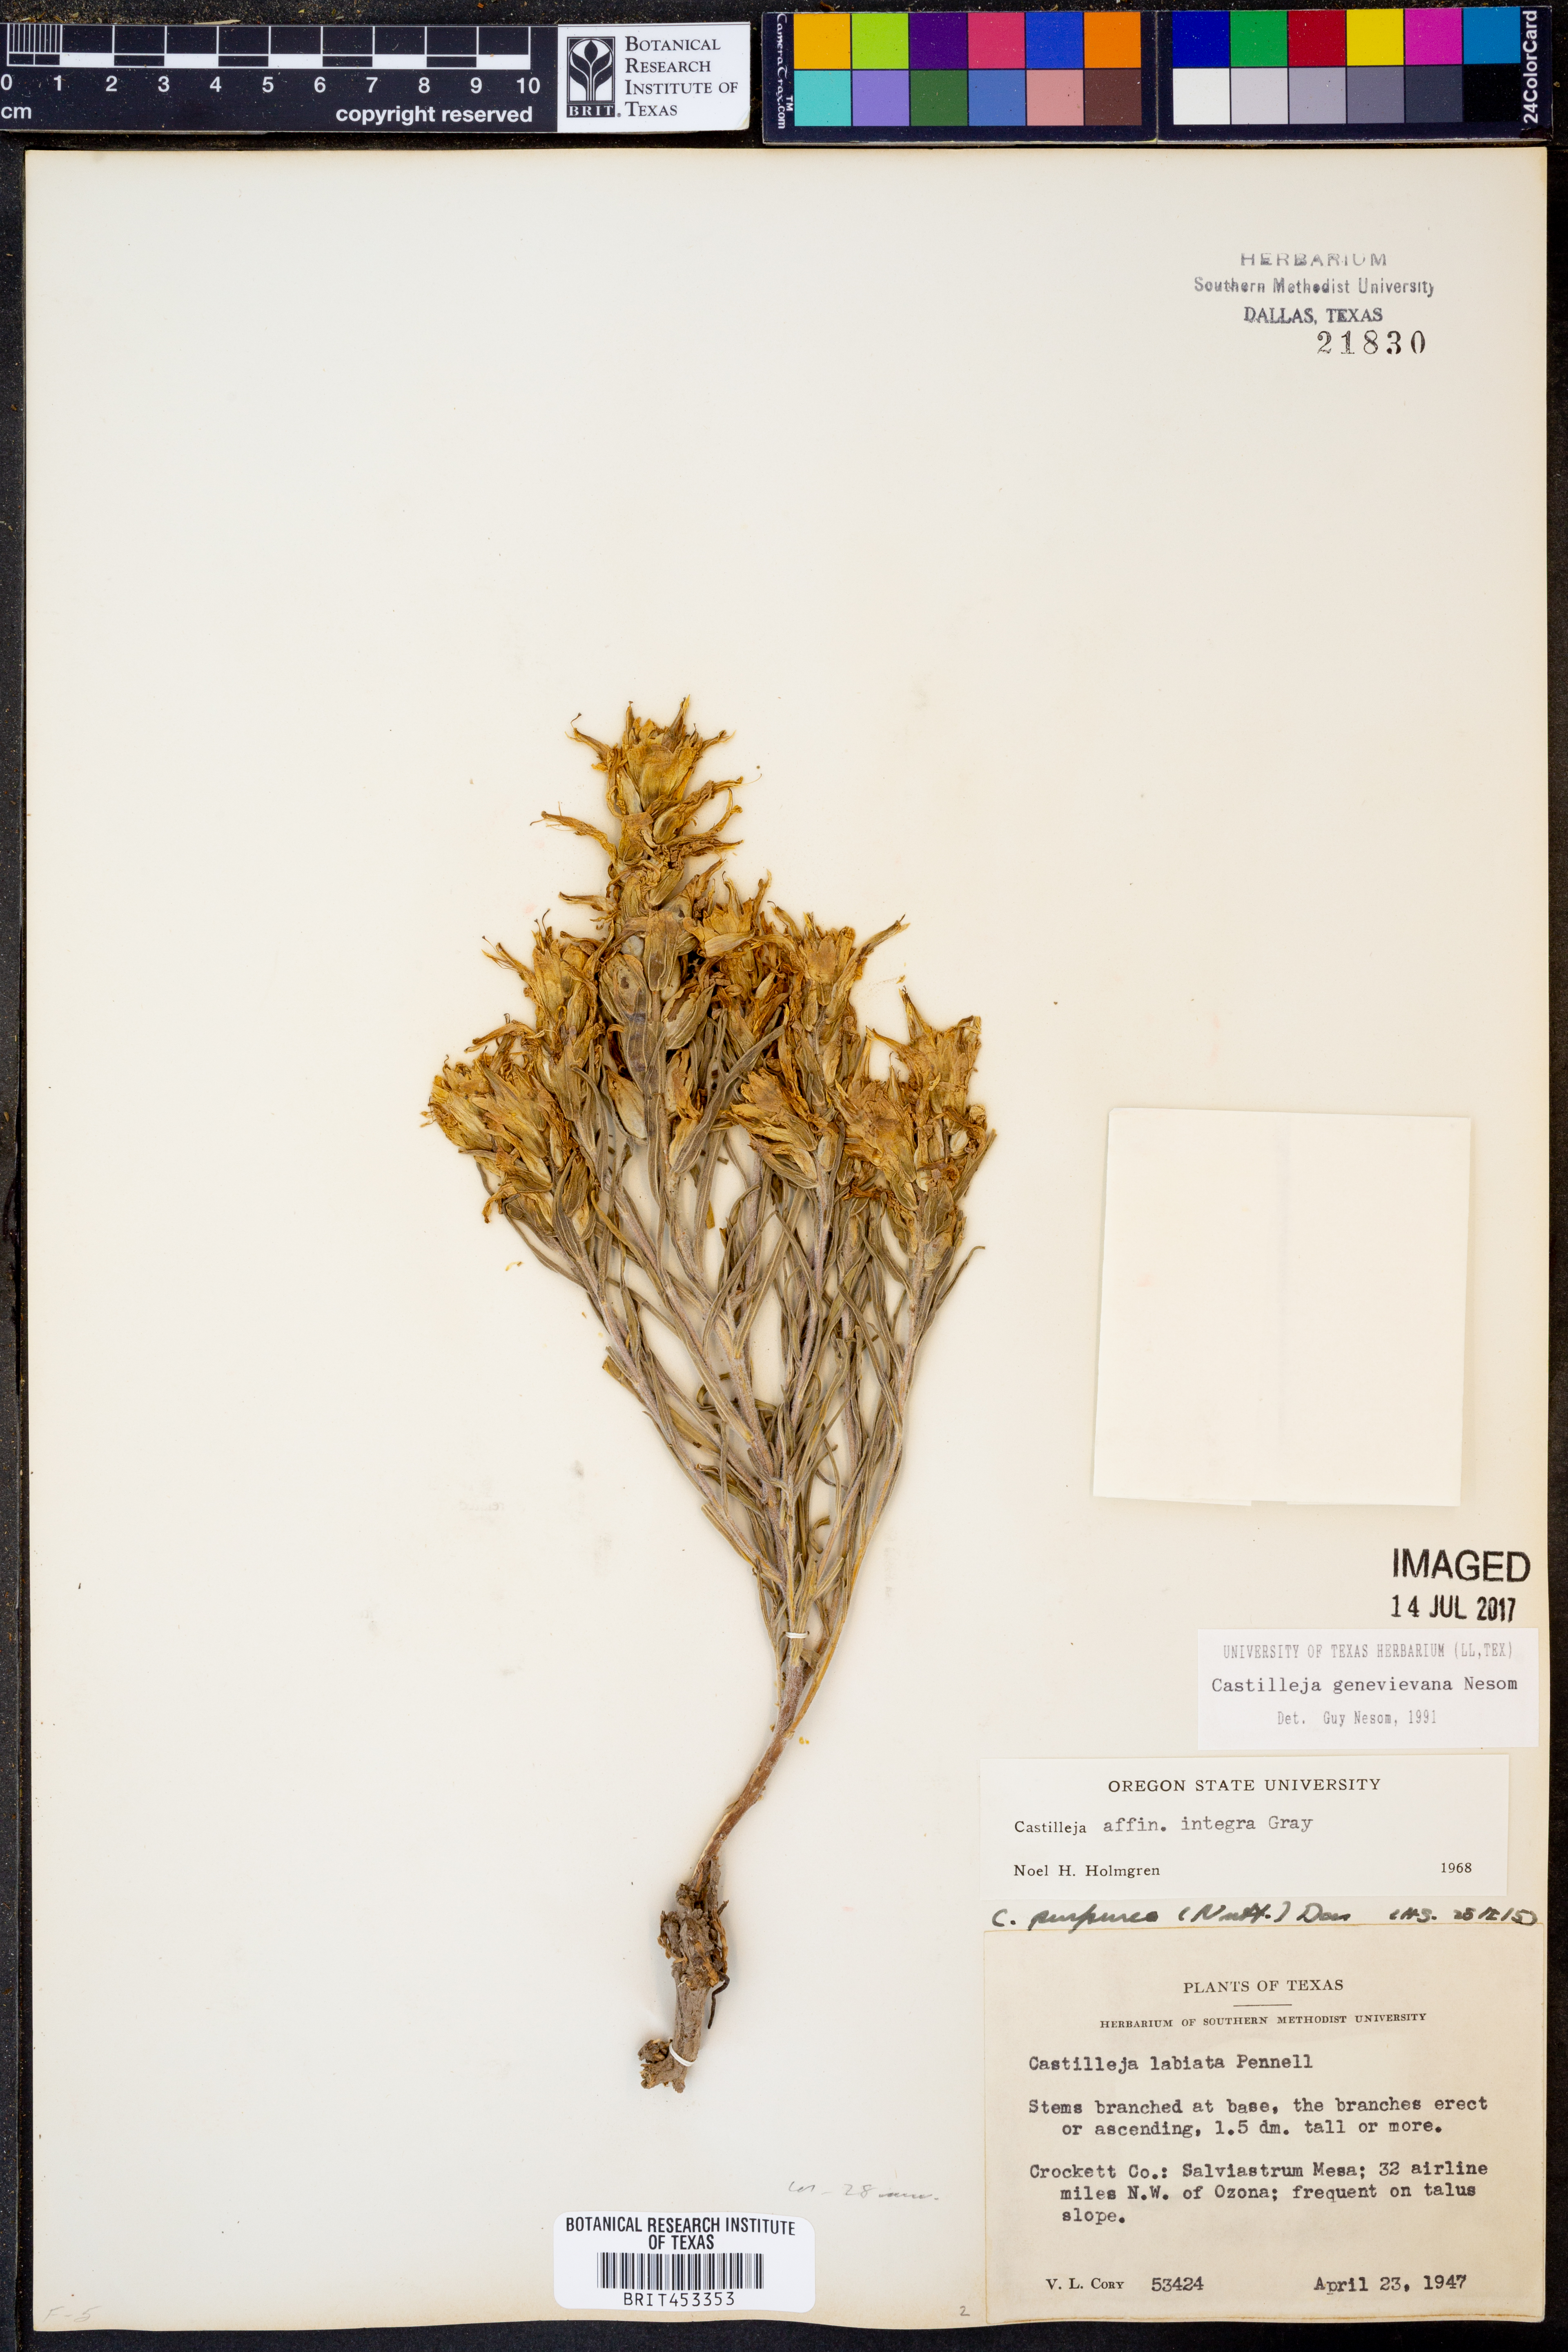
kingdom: Plantae
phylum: Tracheophyta
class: Magnoliopsida
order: Lamiales
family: Orobanchaceae
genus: Castilleja
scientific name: Castilleja genevievana
